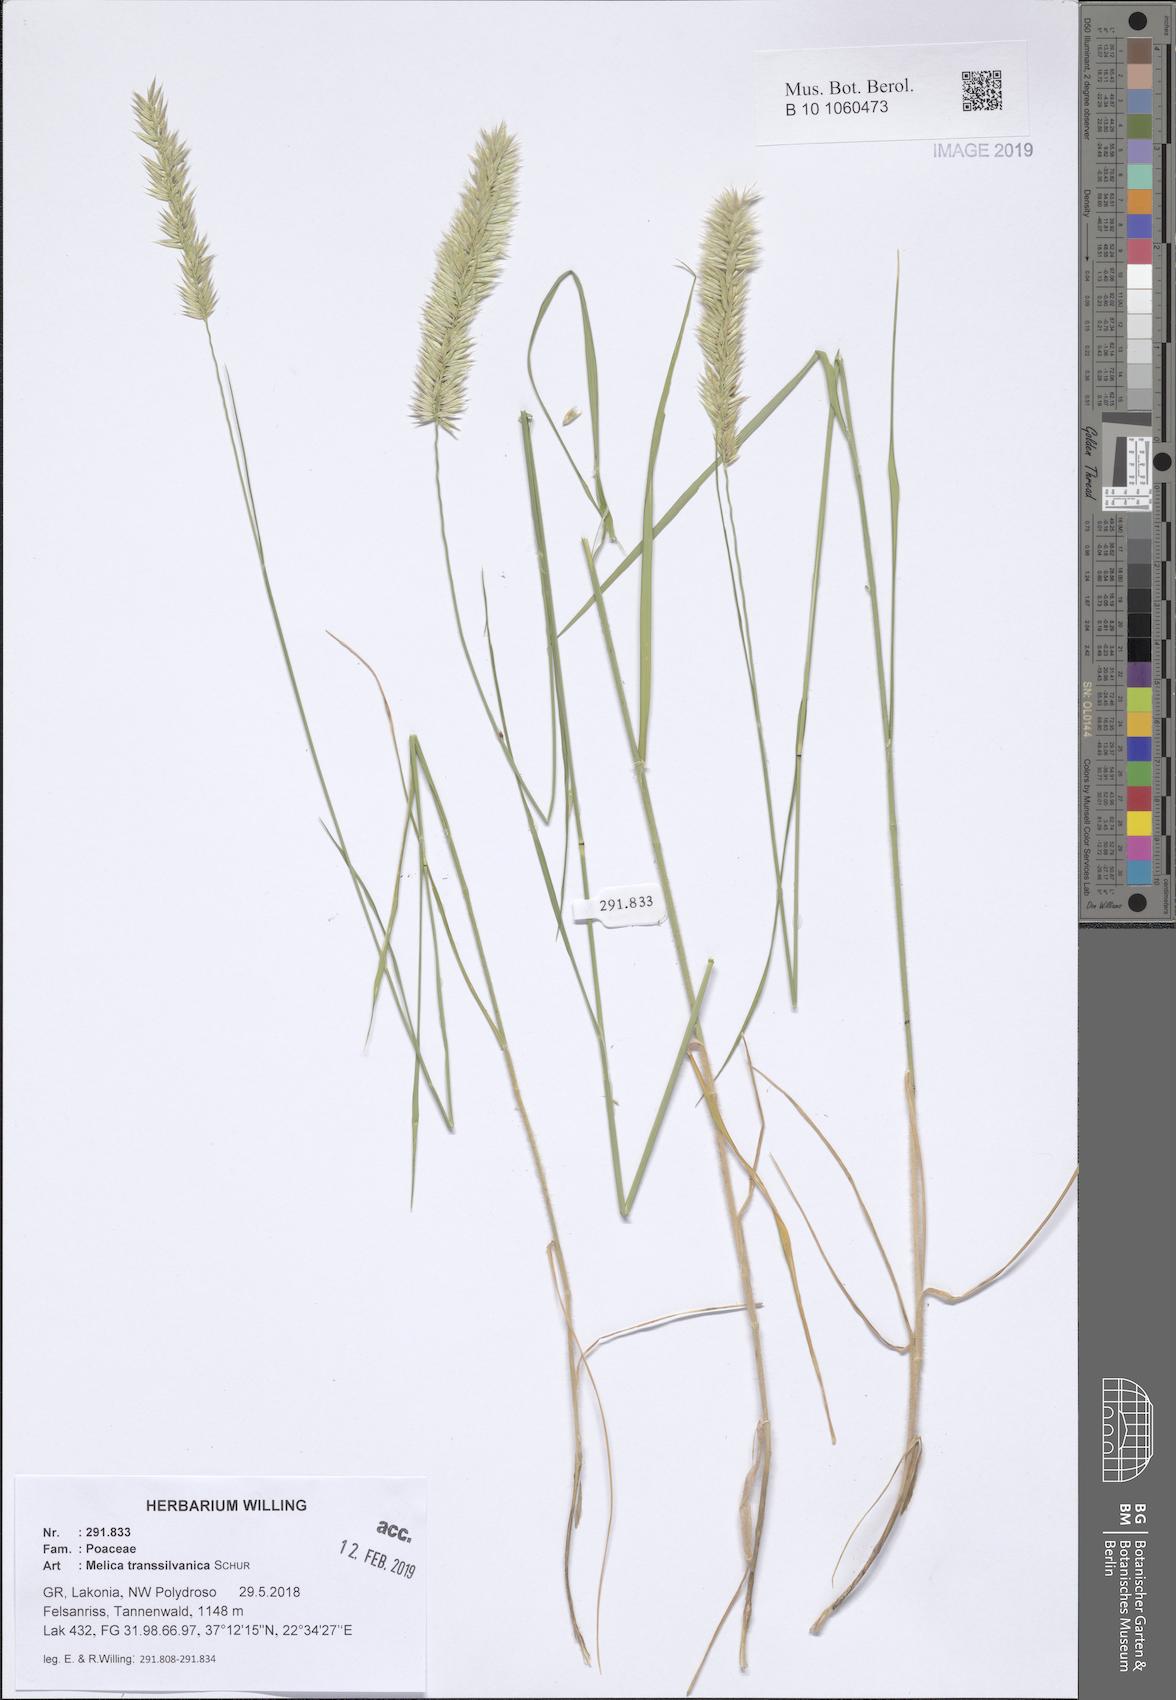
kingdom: Plantae
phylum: Tracheophyta
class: Liliopsida
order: Poales
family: Poaceae
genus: Melica
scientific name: Melica transsilvanica
